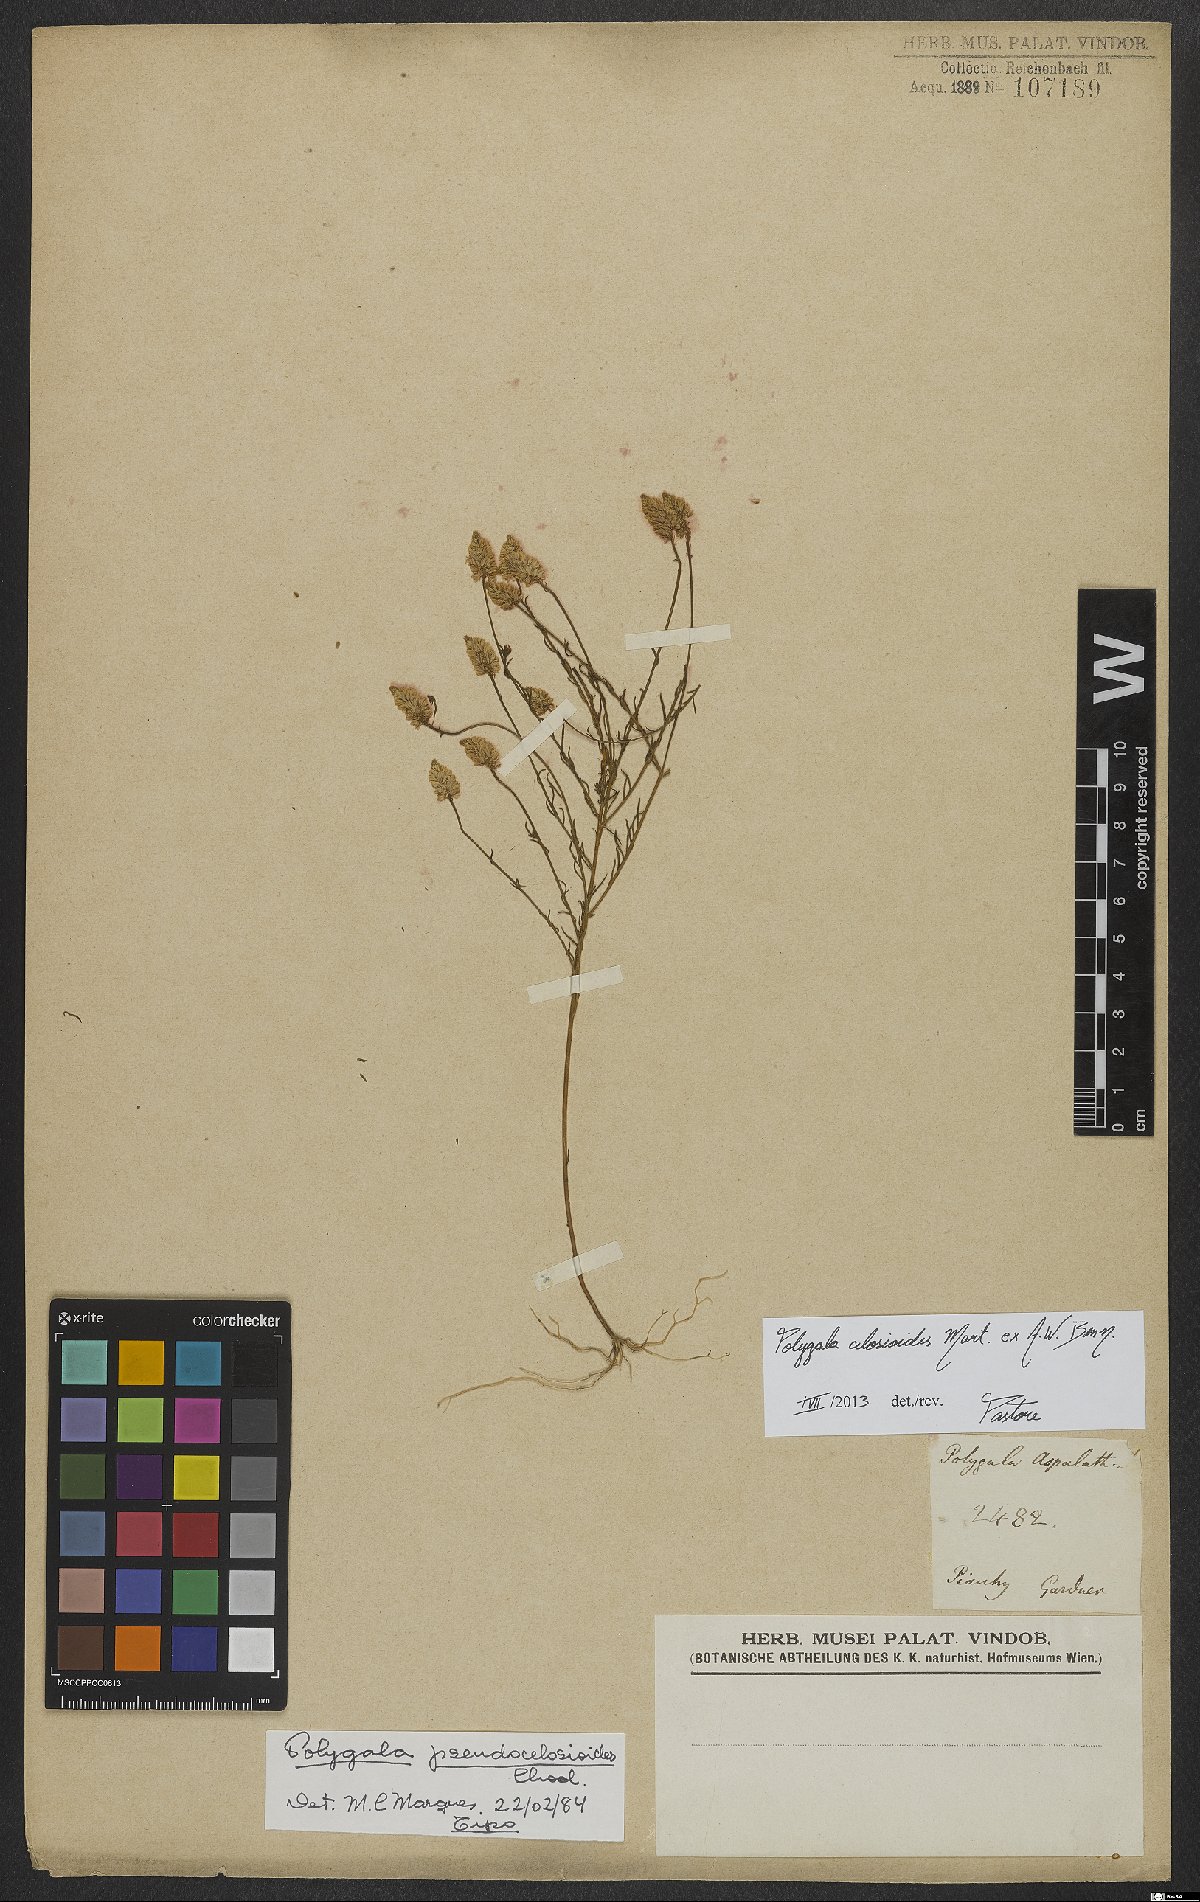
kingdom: Plantae
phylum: Tracheophyta
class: Magnoliopsida
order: Fabales
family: Polygalaceae
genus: Polygala
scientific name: Polygala celosioides
